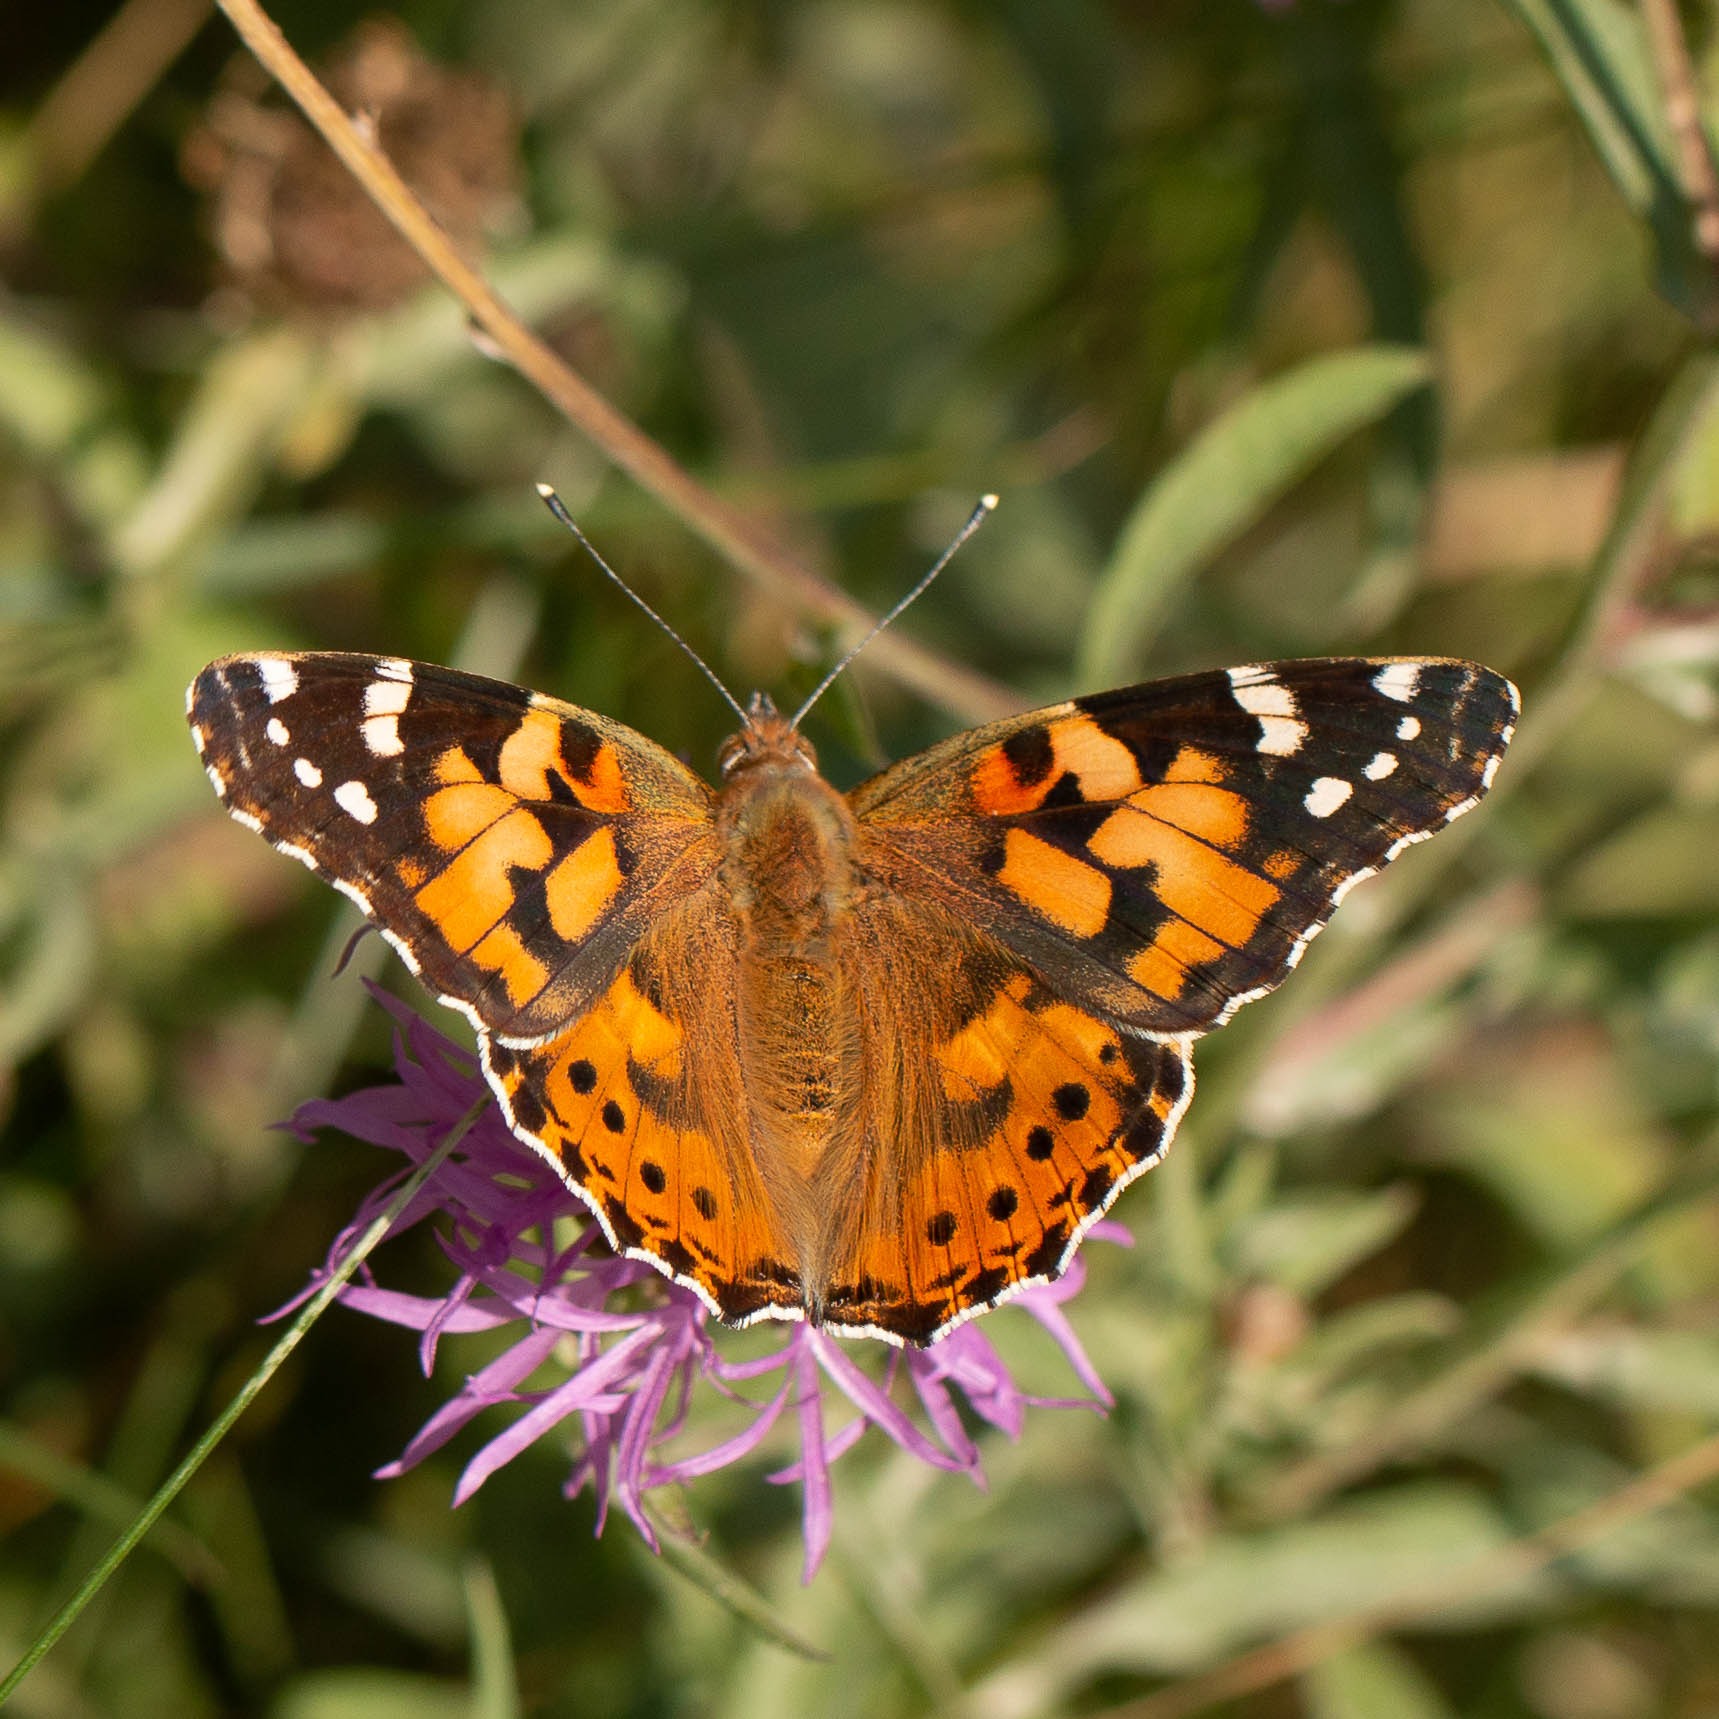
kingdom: Animalia
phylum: Arthropoda
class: Insecta
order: Lepidoptera
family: Nymphalidae
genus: Vanessa
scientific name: Vanessa cardui
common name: Tidselsommerfugl
